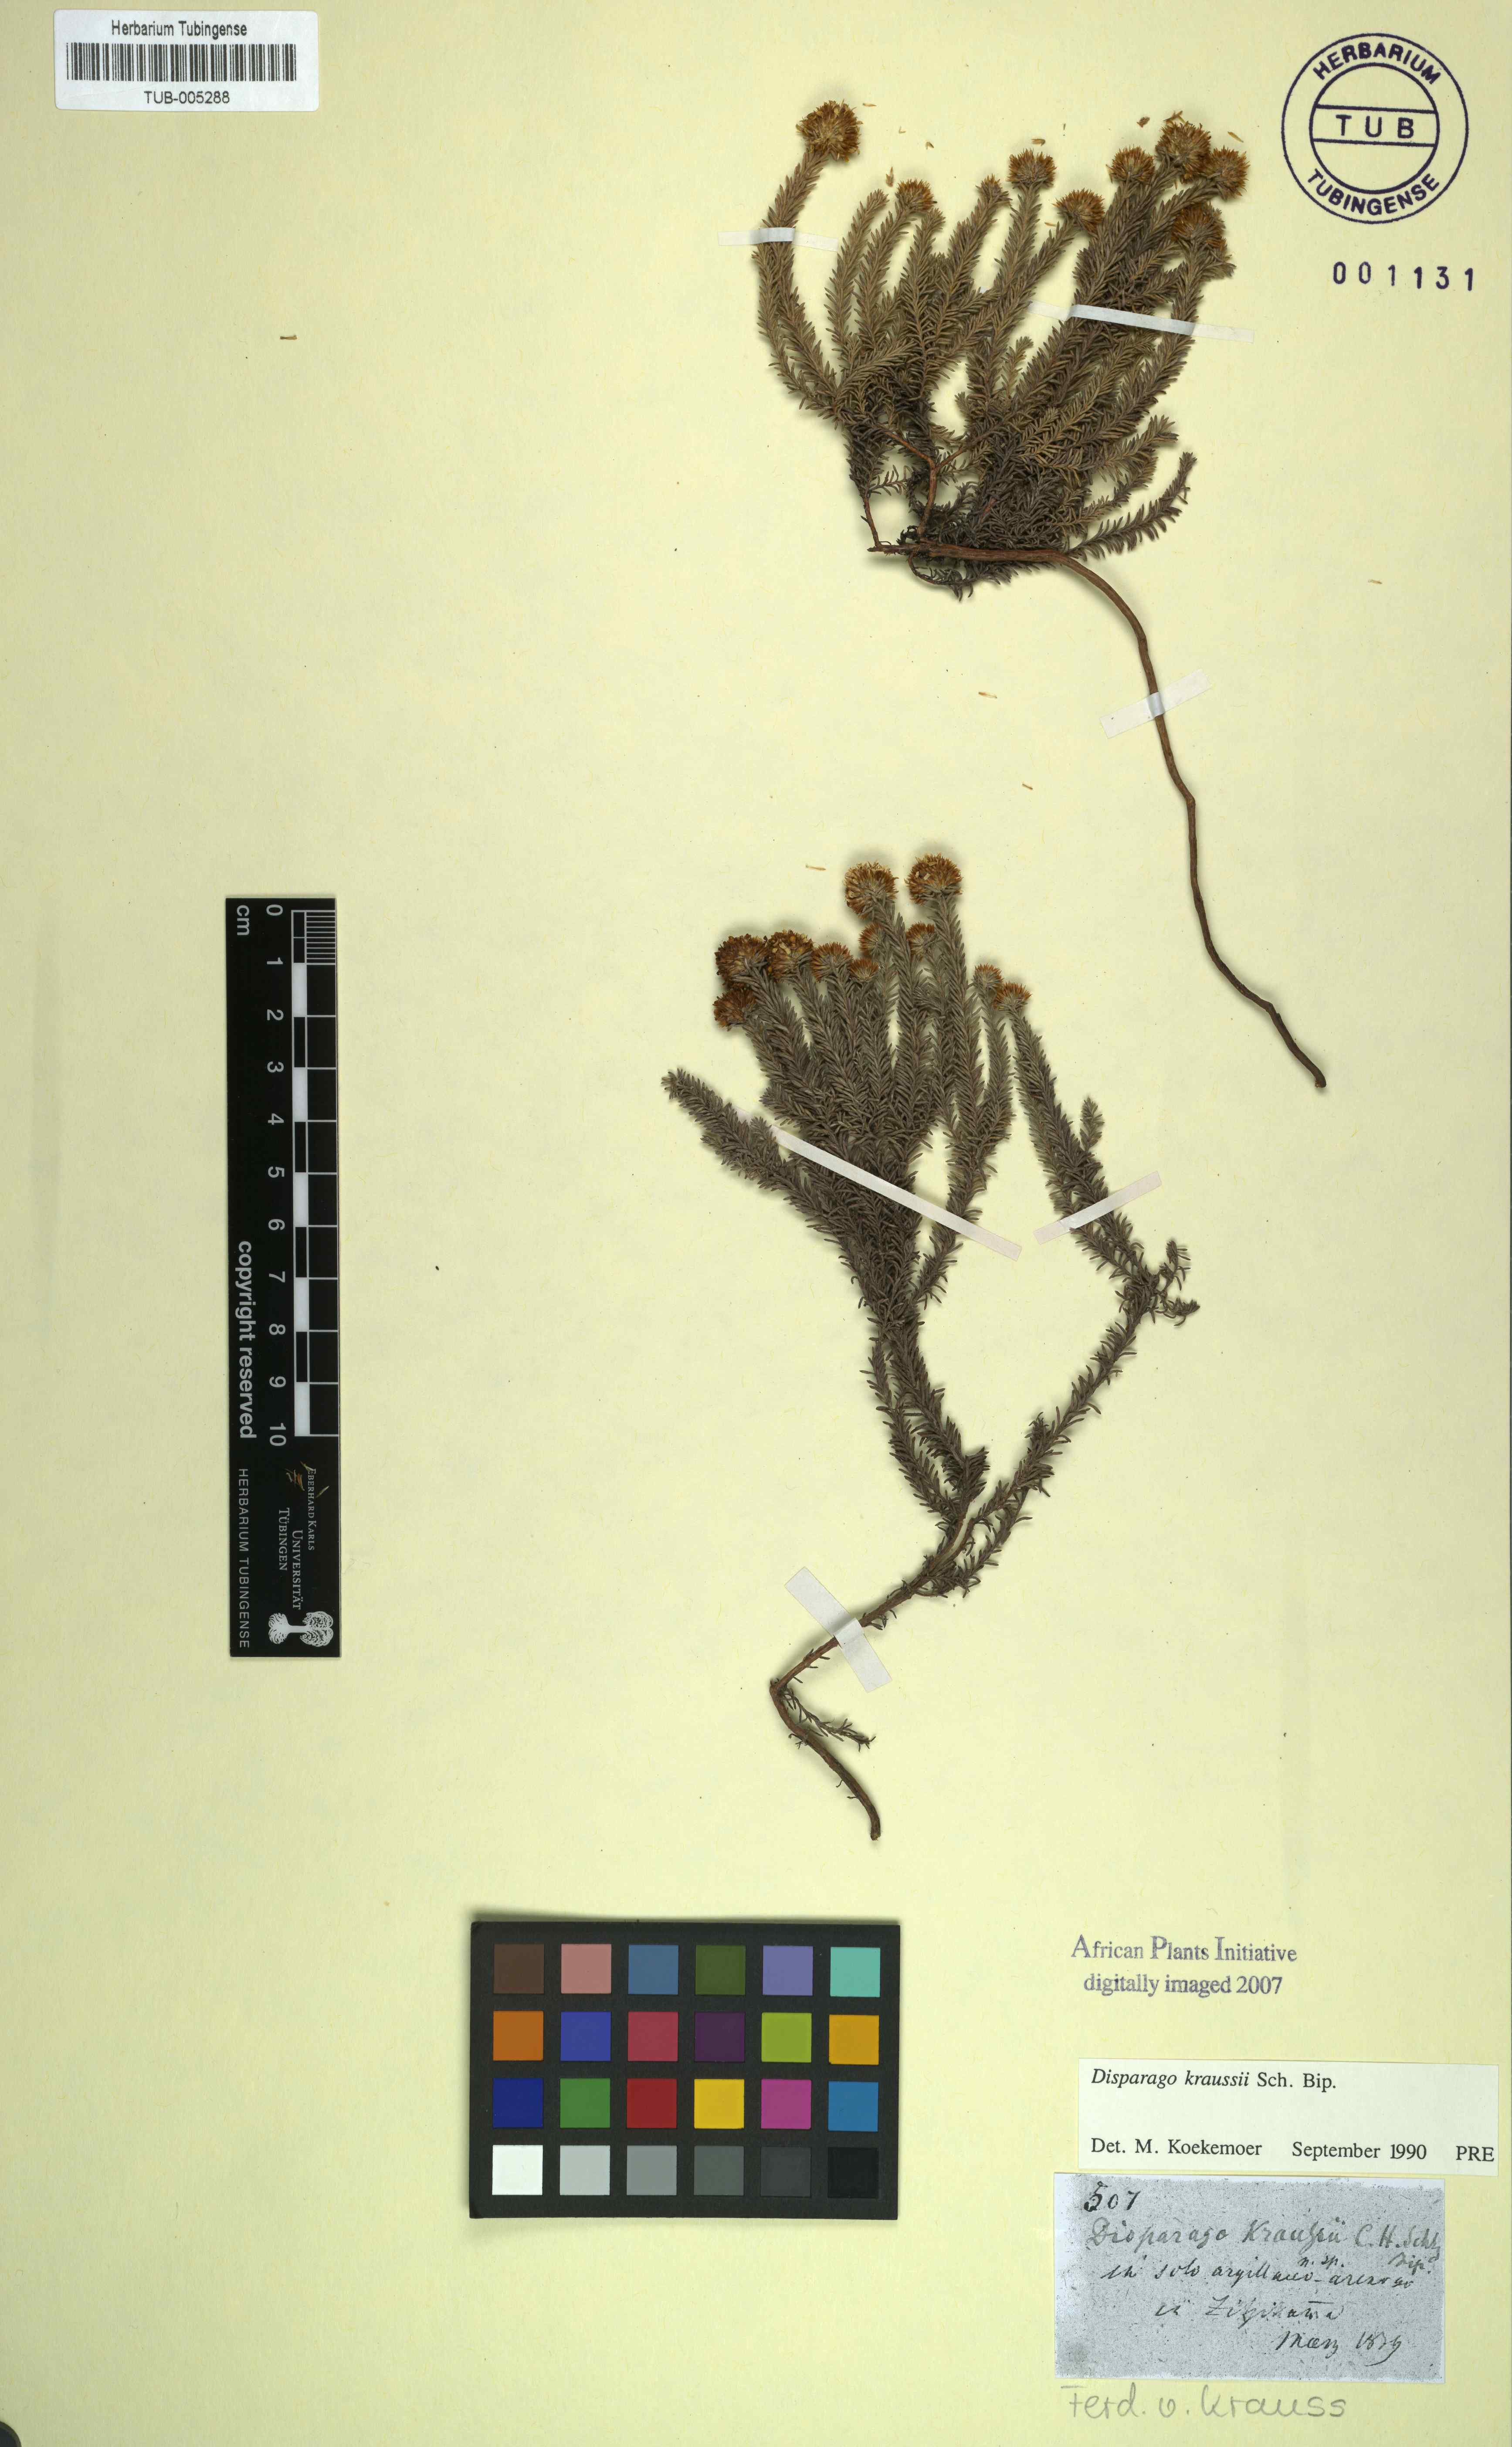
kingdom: Plantae
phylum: Tracheophyta
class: Magnoliopsida
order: Asterales
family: Asteraceae
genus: Disparago
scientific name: Disparago kraussii
